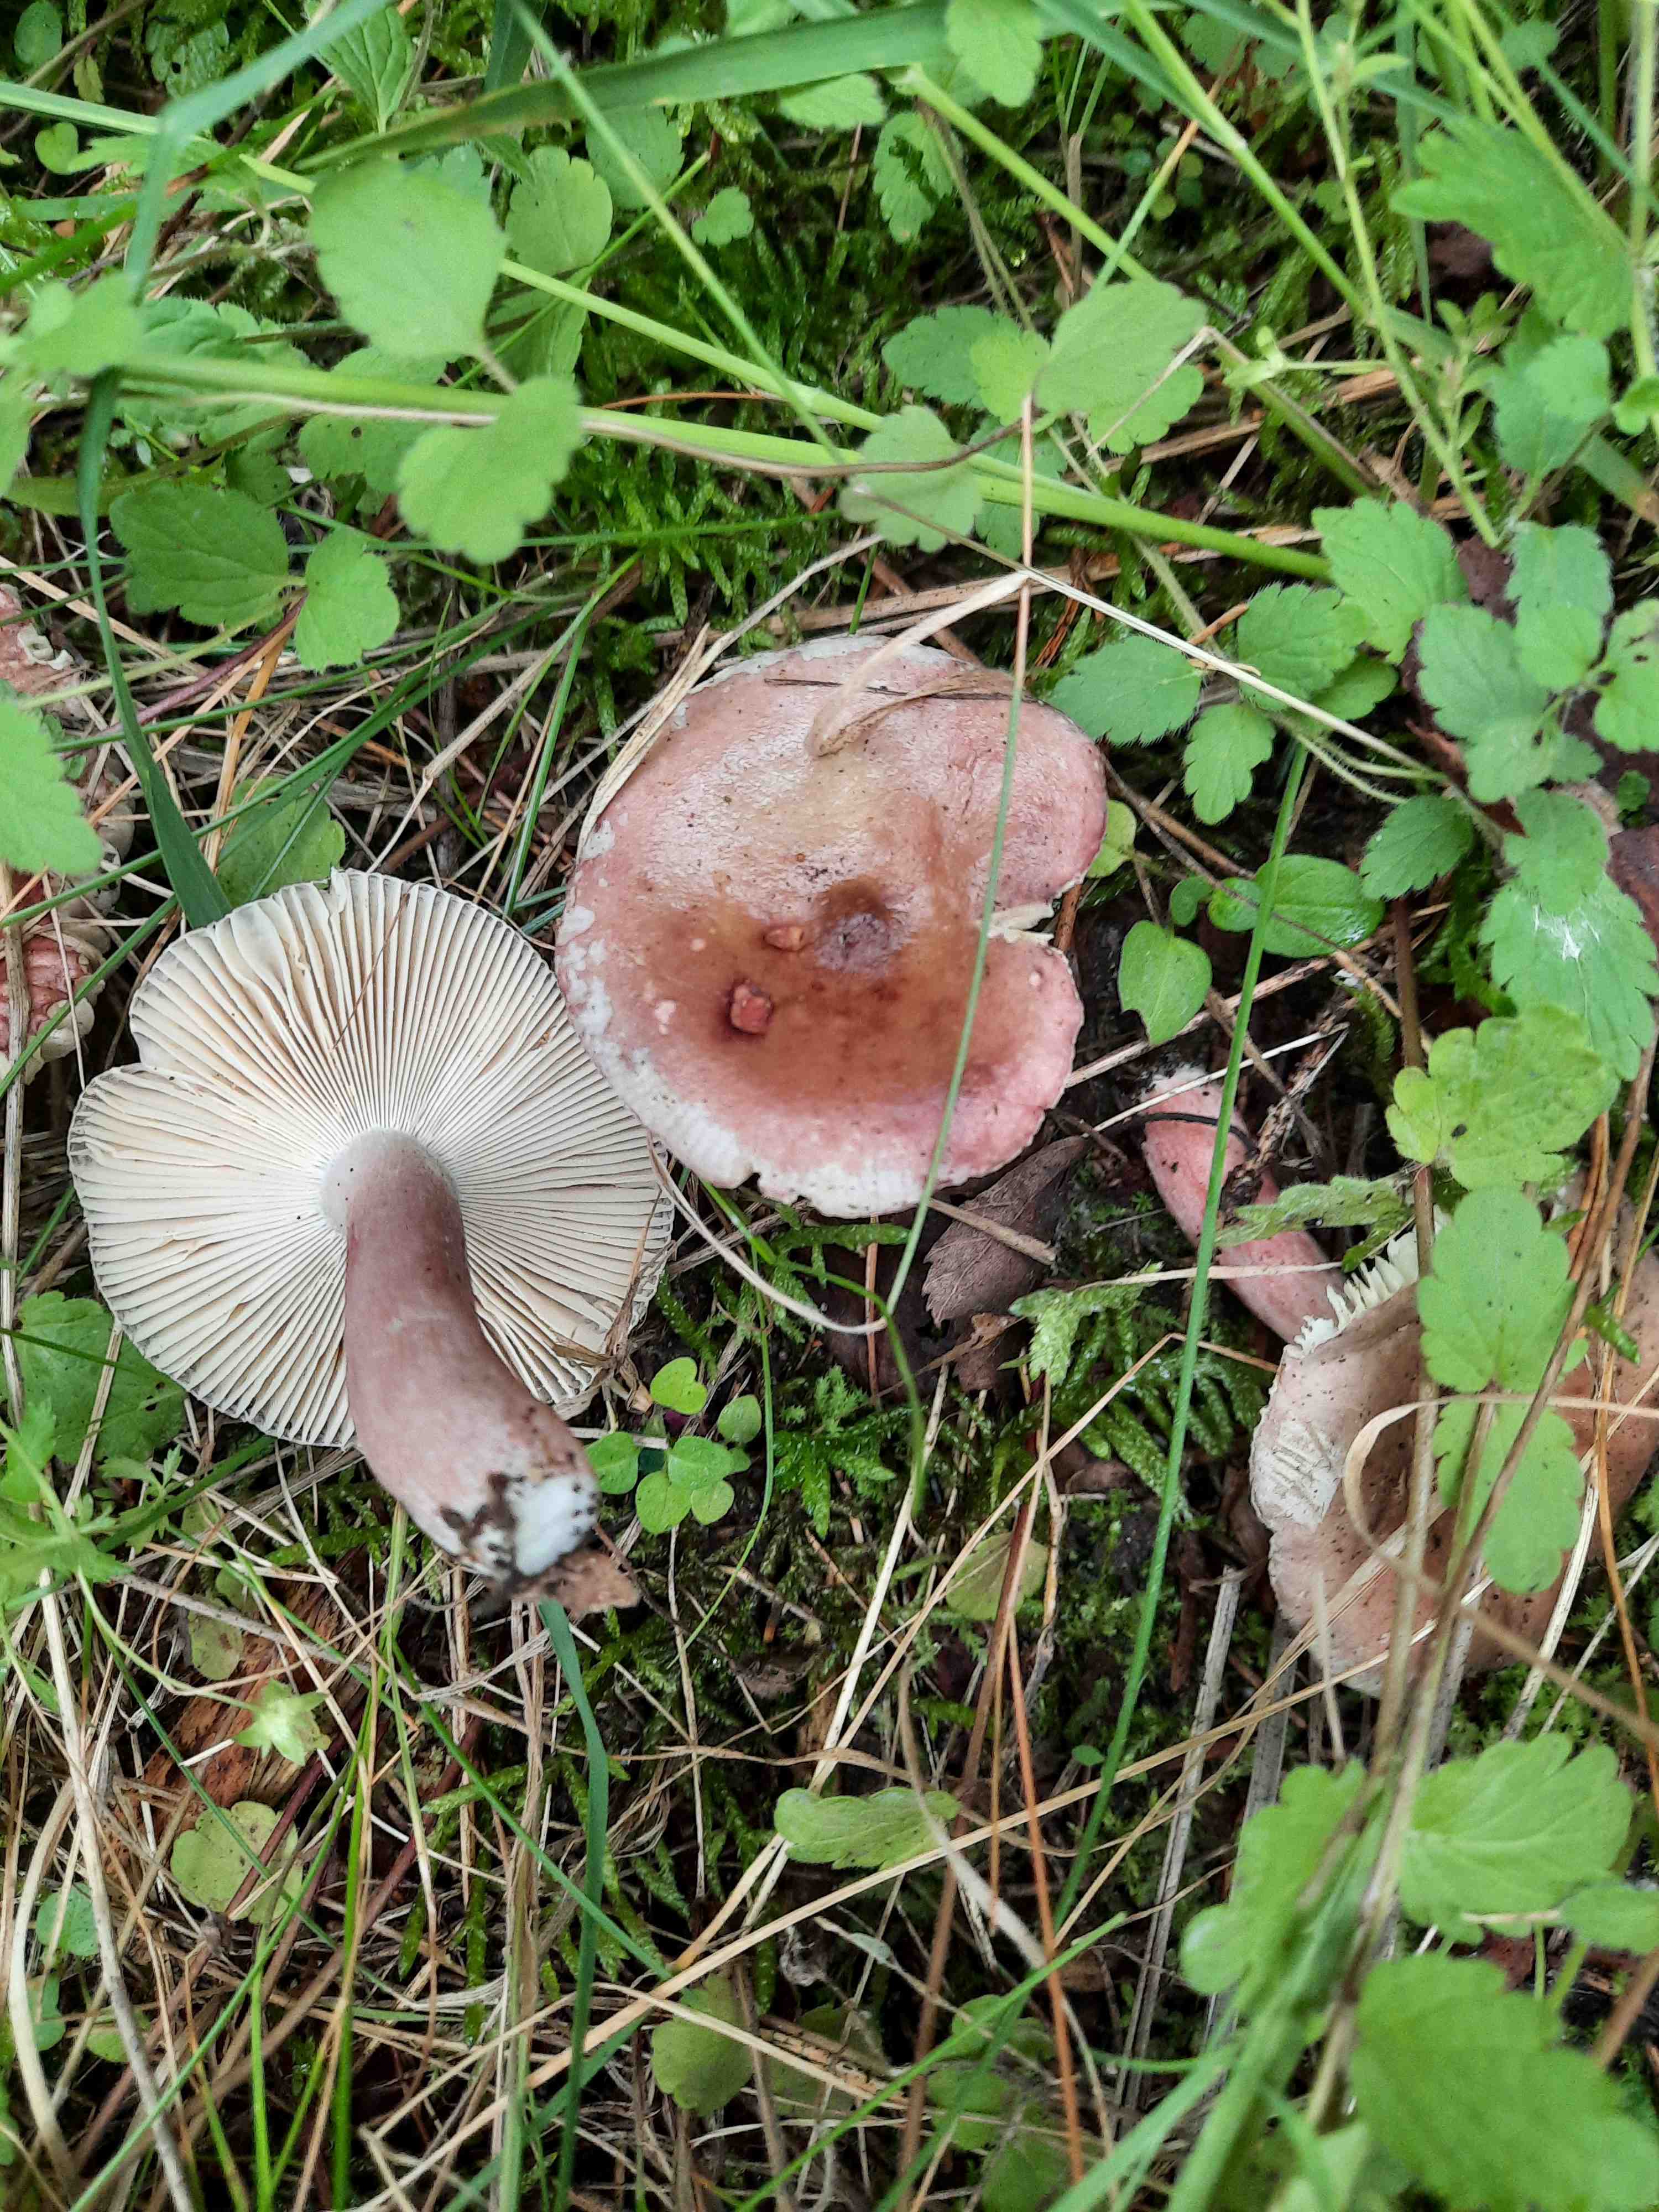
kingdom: Fungi
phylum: Basidiomycota
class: Agaricomycetes
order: Russulales
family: Russulaceae
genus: Russula
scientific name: Russula queletii
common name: Quélets skørhat
